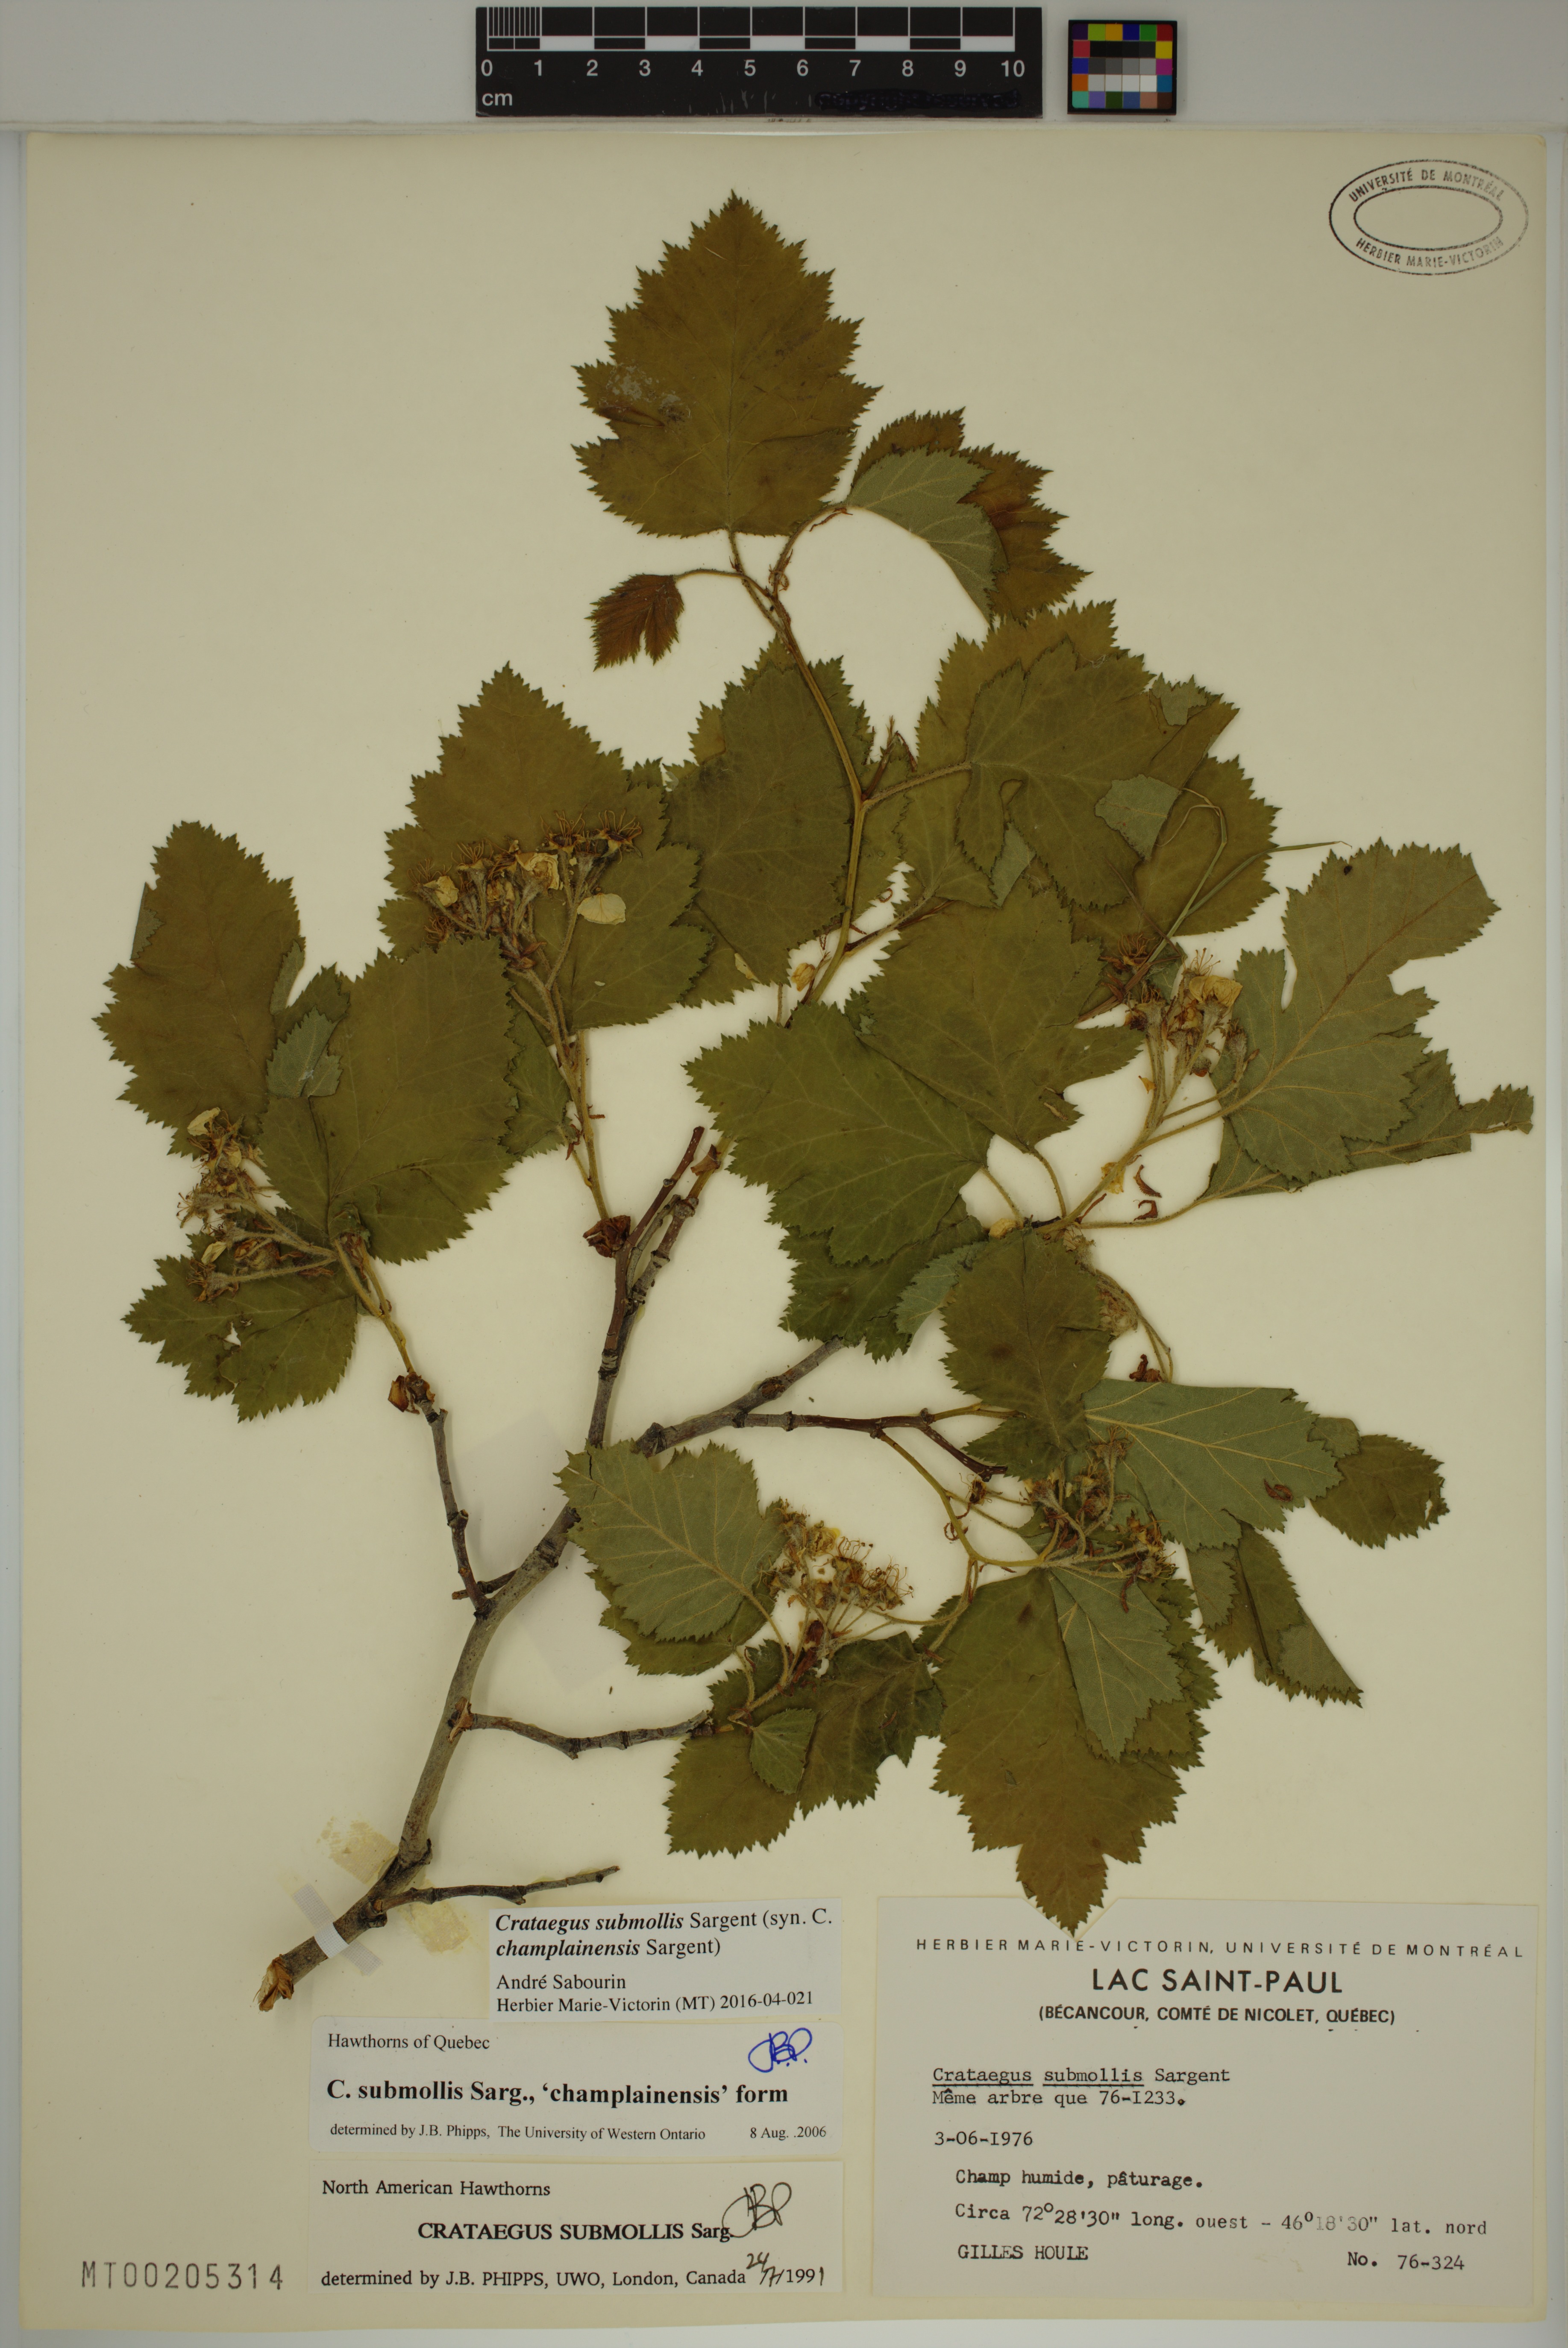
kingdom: Plantae
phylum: Tracheophyta
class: Magnoliopsida
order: Rosales
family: Rosaceae
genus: Crataegus
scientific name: Crataegus submollis
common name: Hairy cockspurthorn
